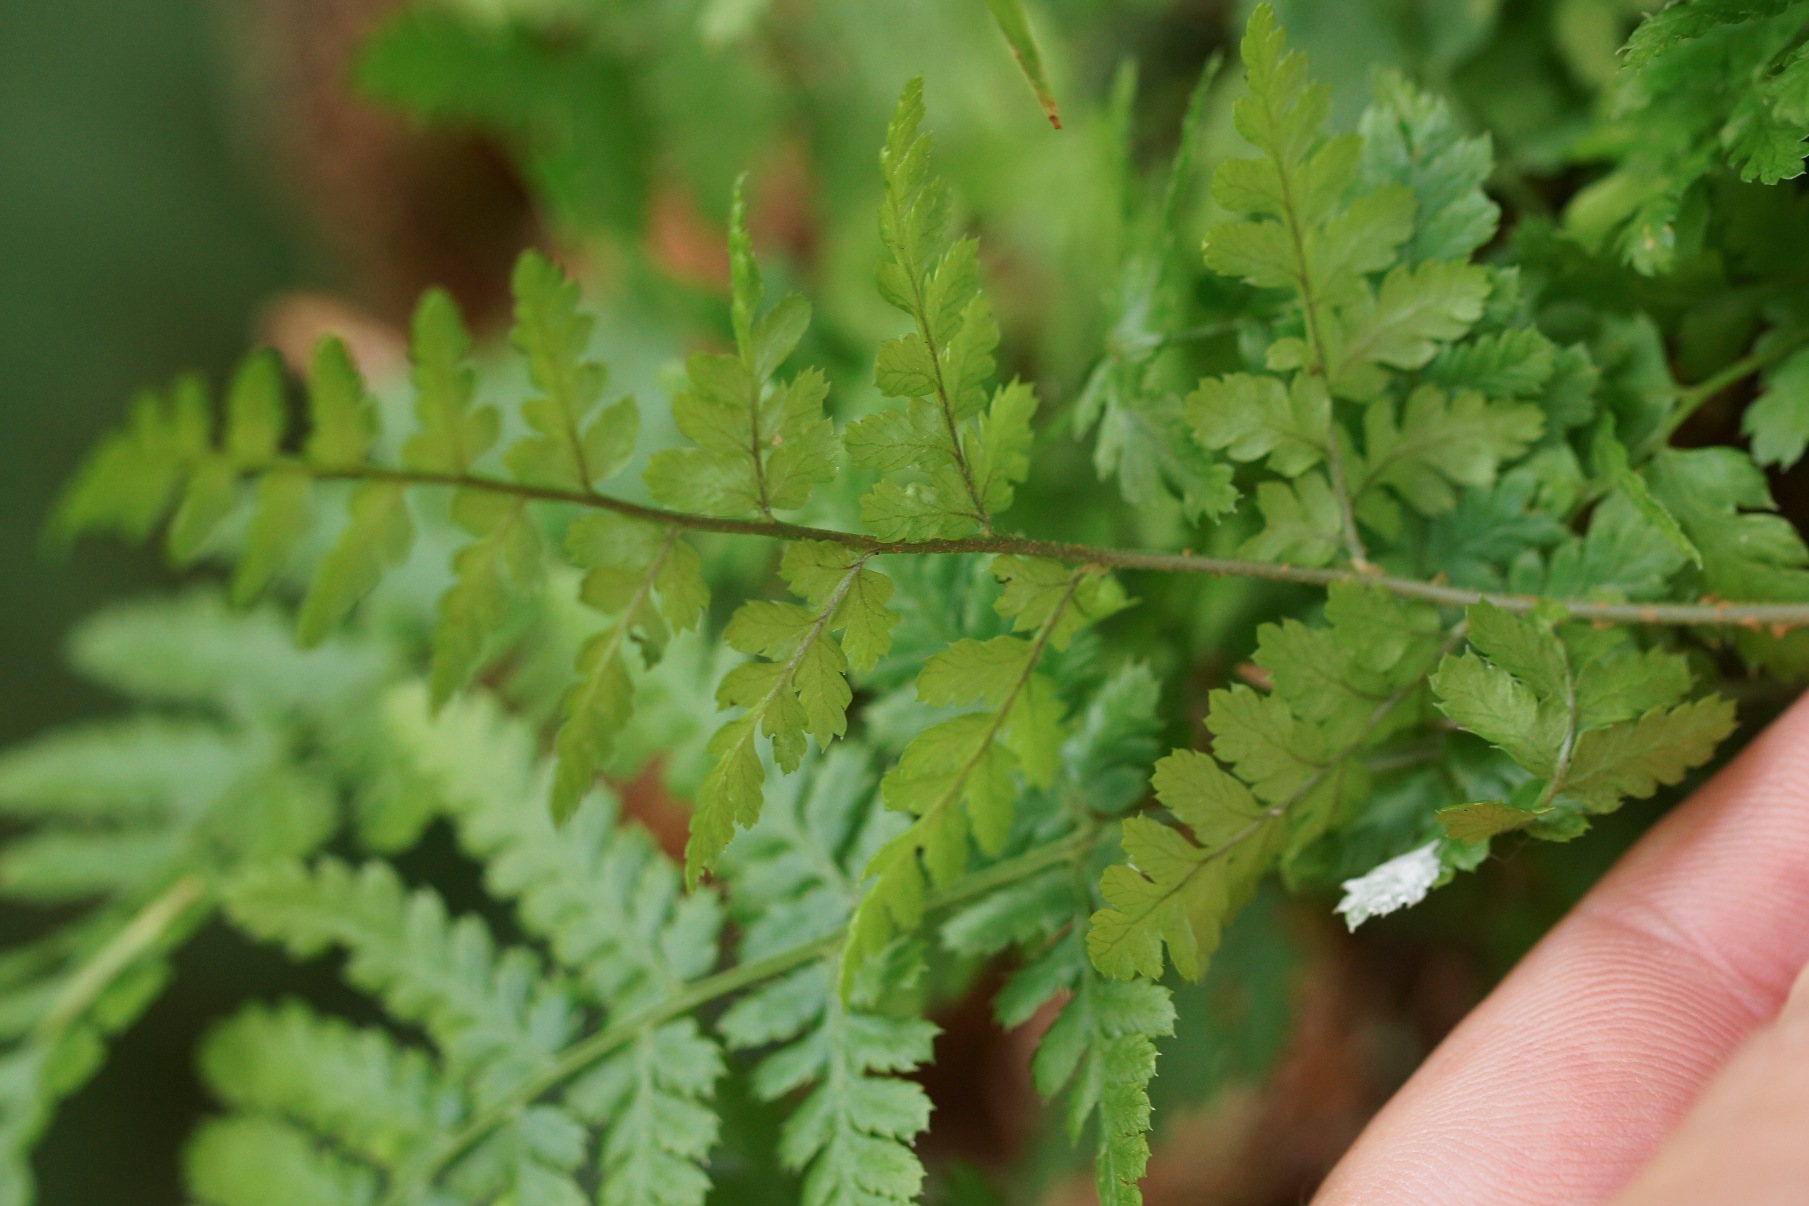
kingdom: Plantae
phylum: Tracheophyta
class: Polypodiopsida
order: Polypodiales
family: Dryopteridaceae
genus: Dryopteris
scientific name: Dryopteris carthusiana
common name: Smalbladet mangeløv
